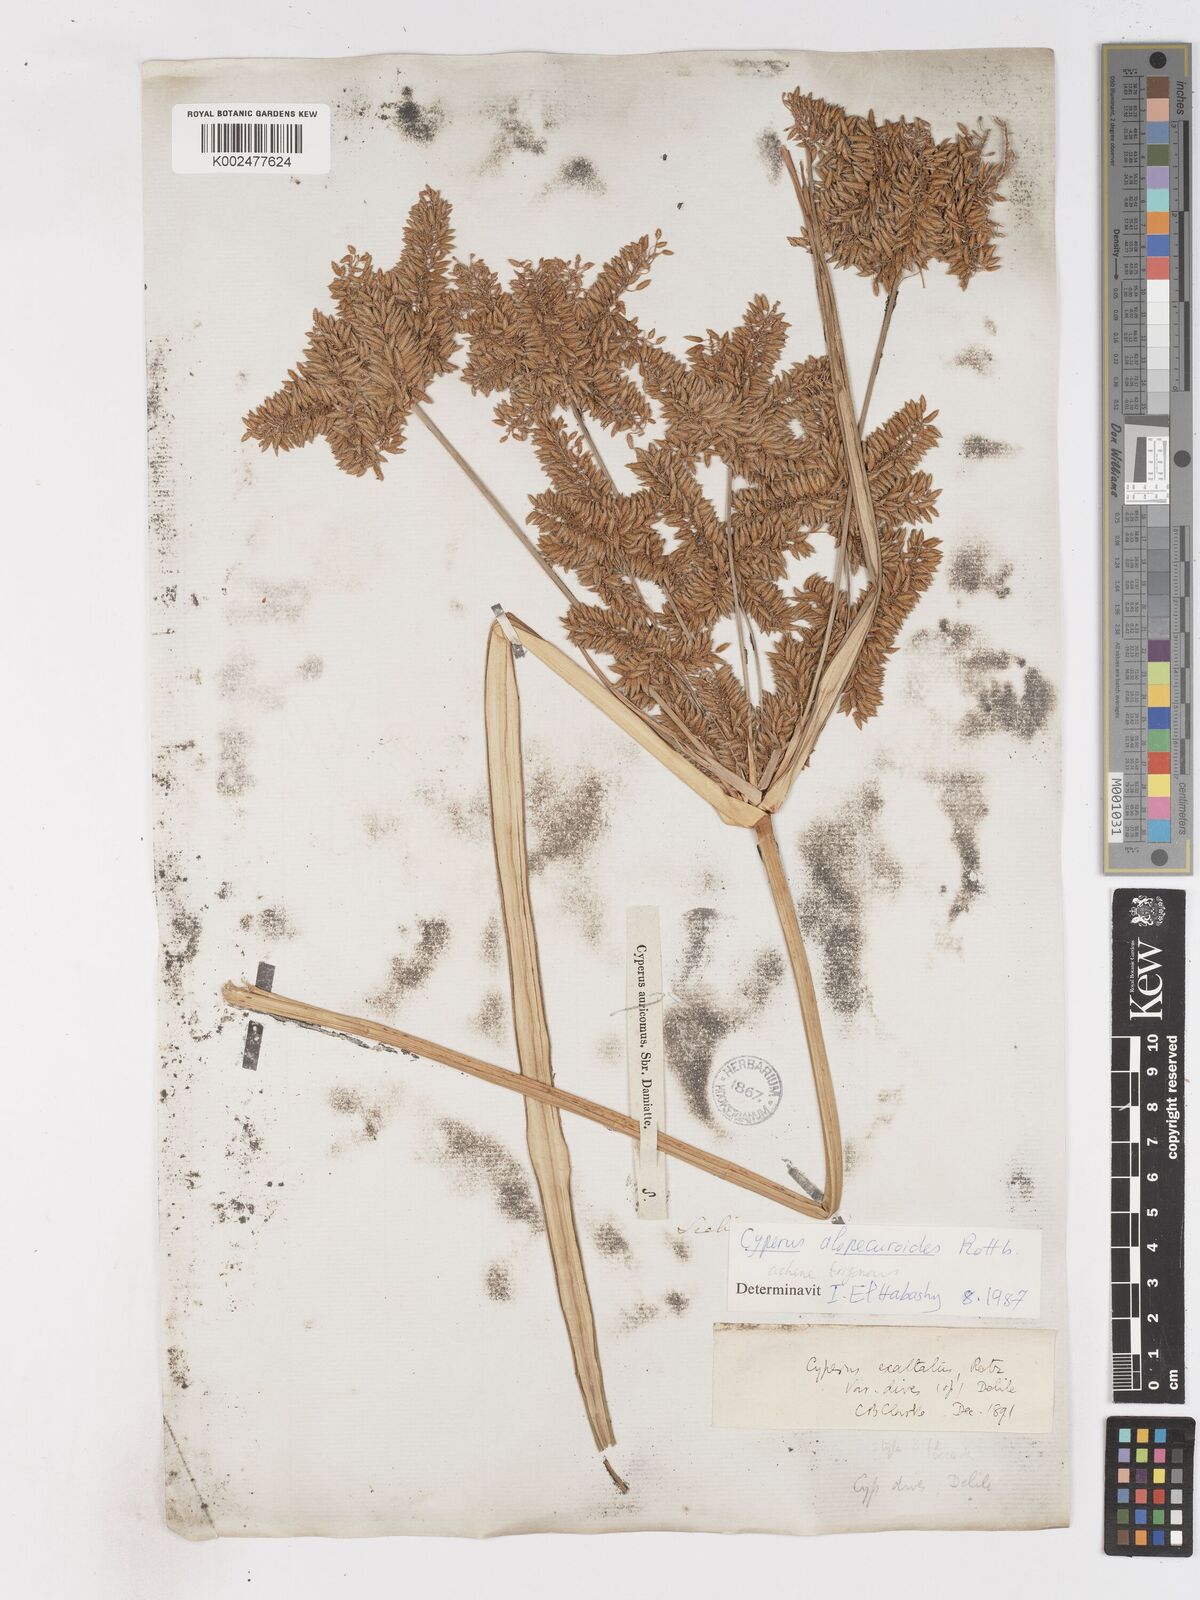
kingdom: Plantae
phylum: Tracheophyta
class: Liliopsida
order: Poales
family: Cyperaceae
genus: Cyperus
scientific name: Cyperus
